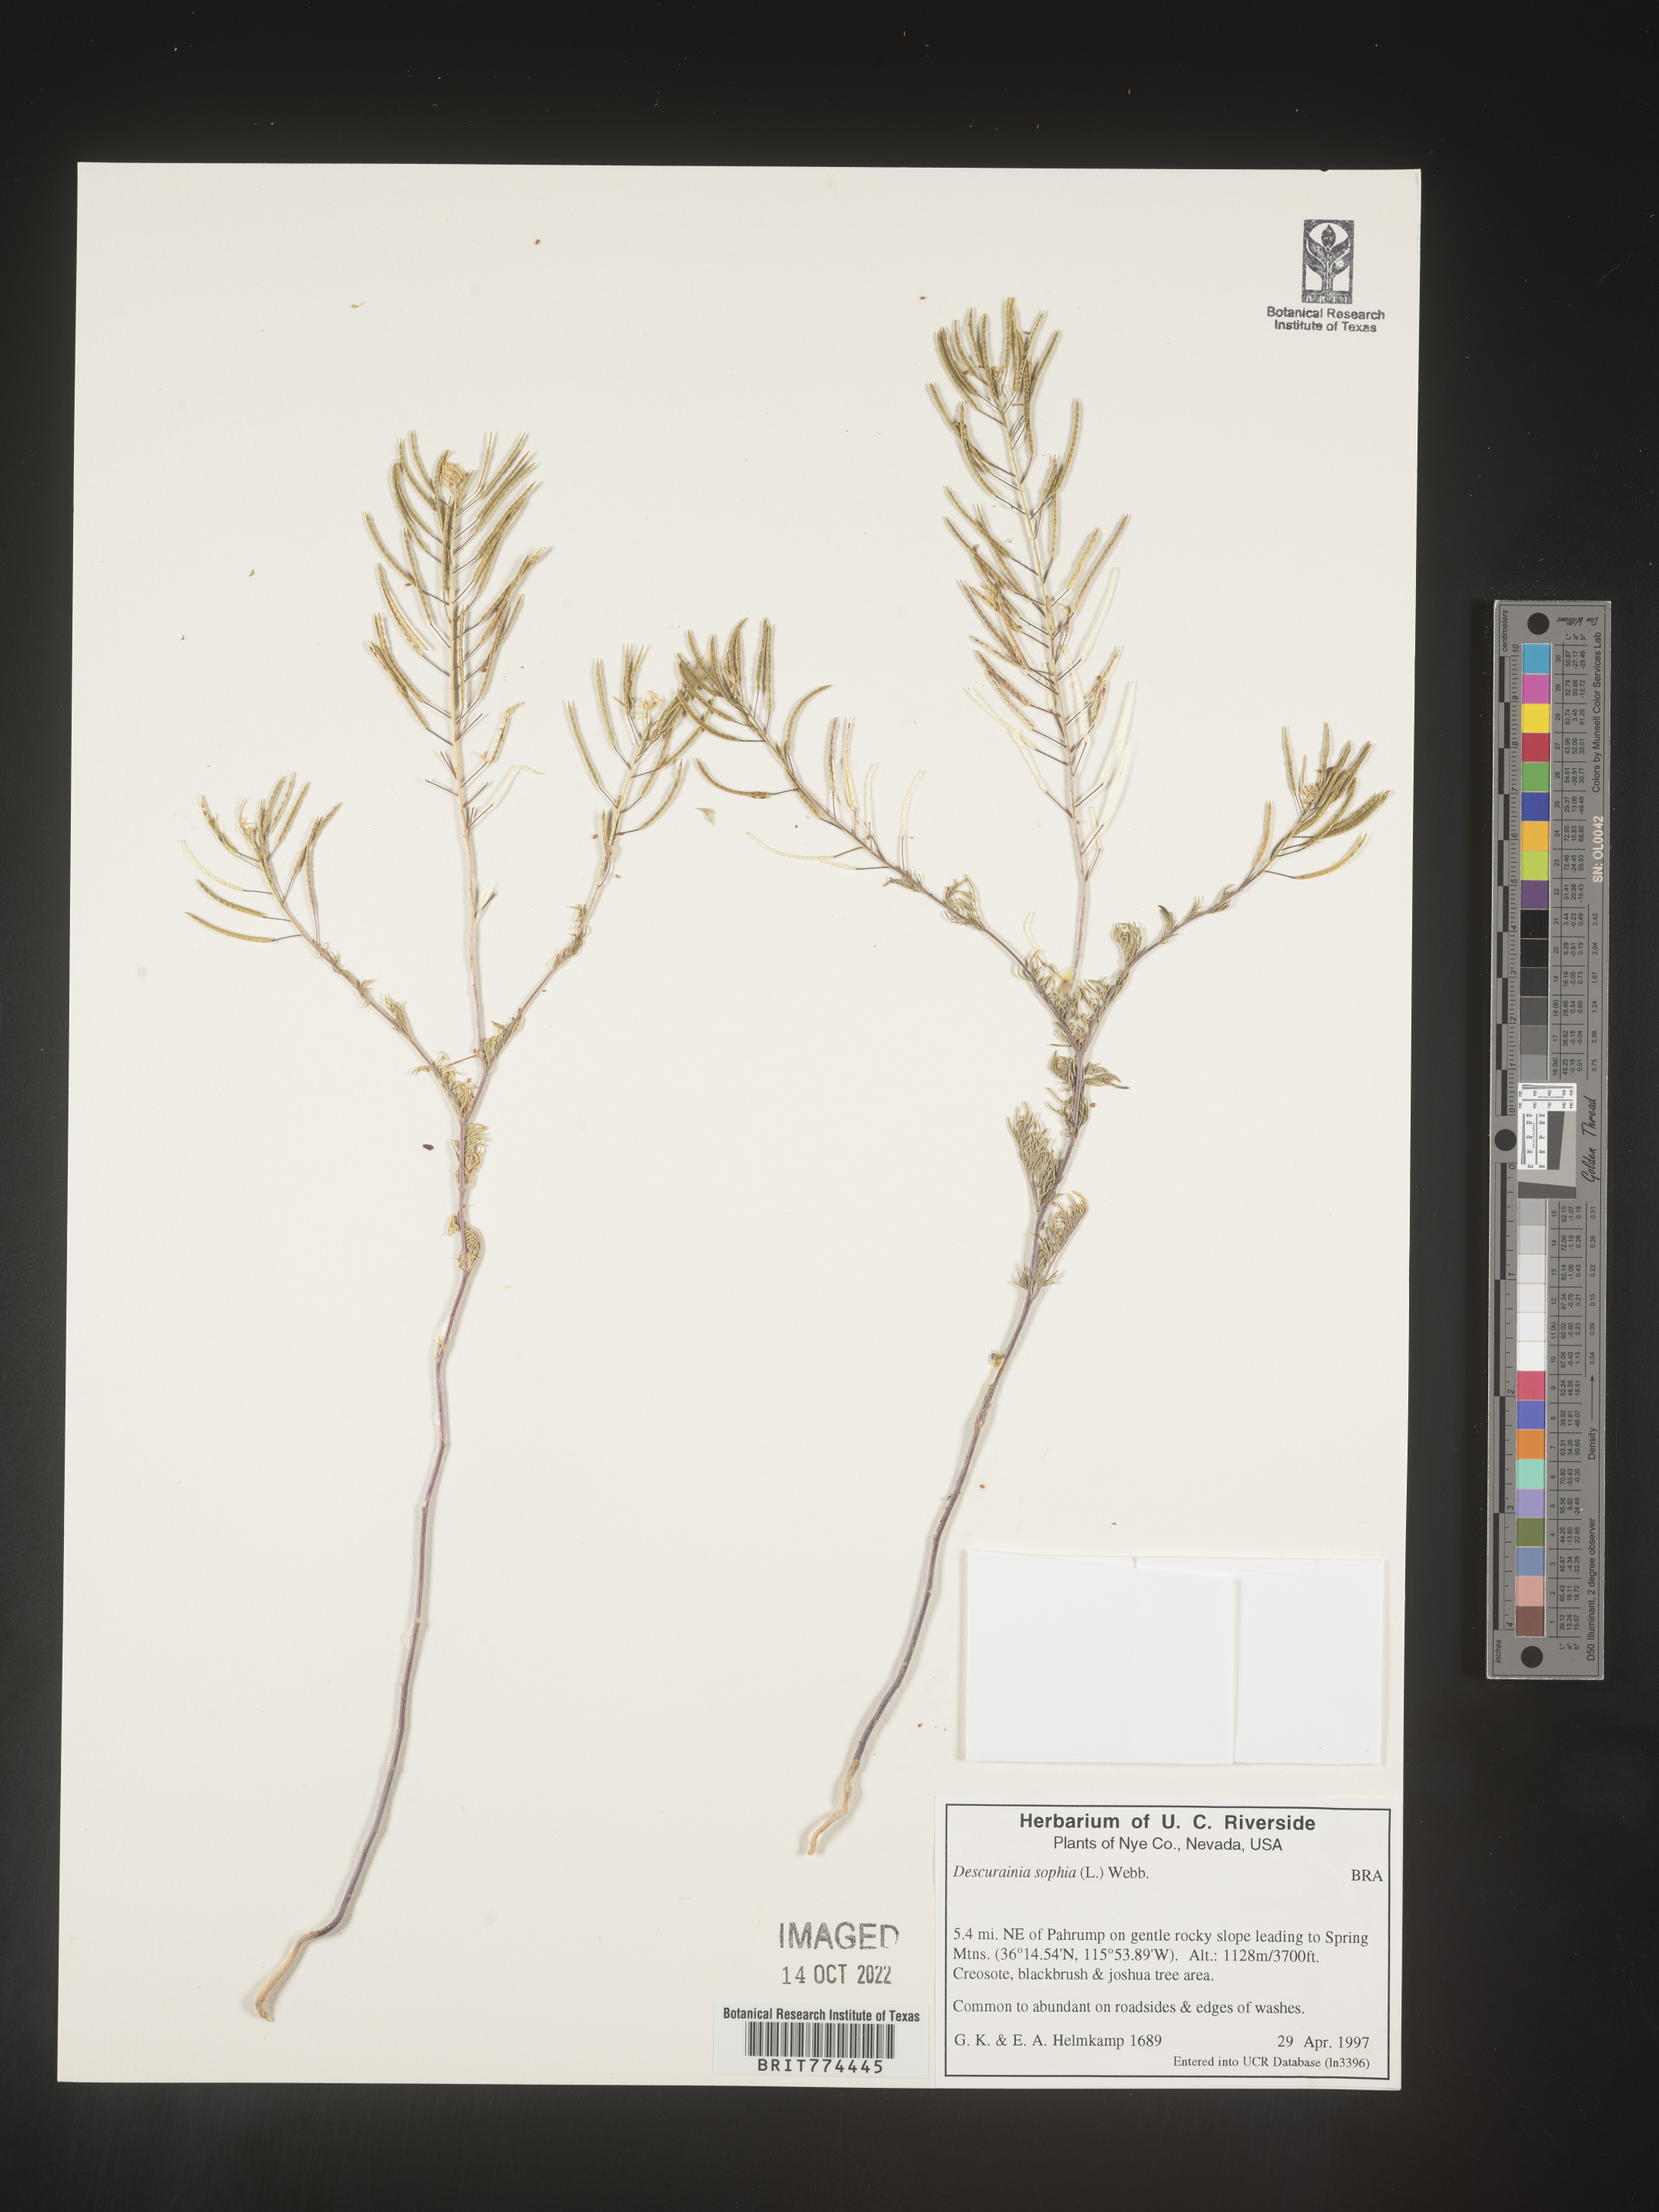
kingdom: Plantae
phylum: Tracheophyta
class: Magnoliopsida
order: Brassicales
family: Brassicaceae
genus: Descurainia
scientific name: Descurainia sophia
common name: Flixweed
